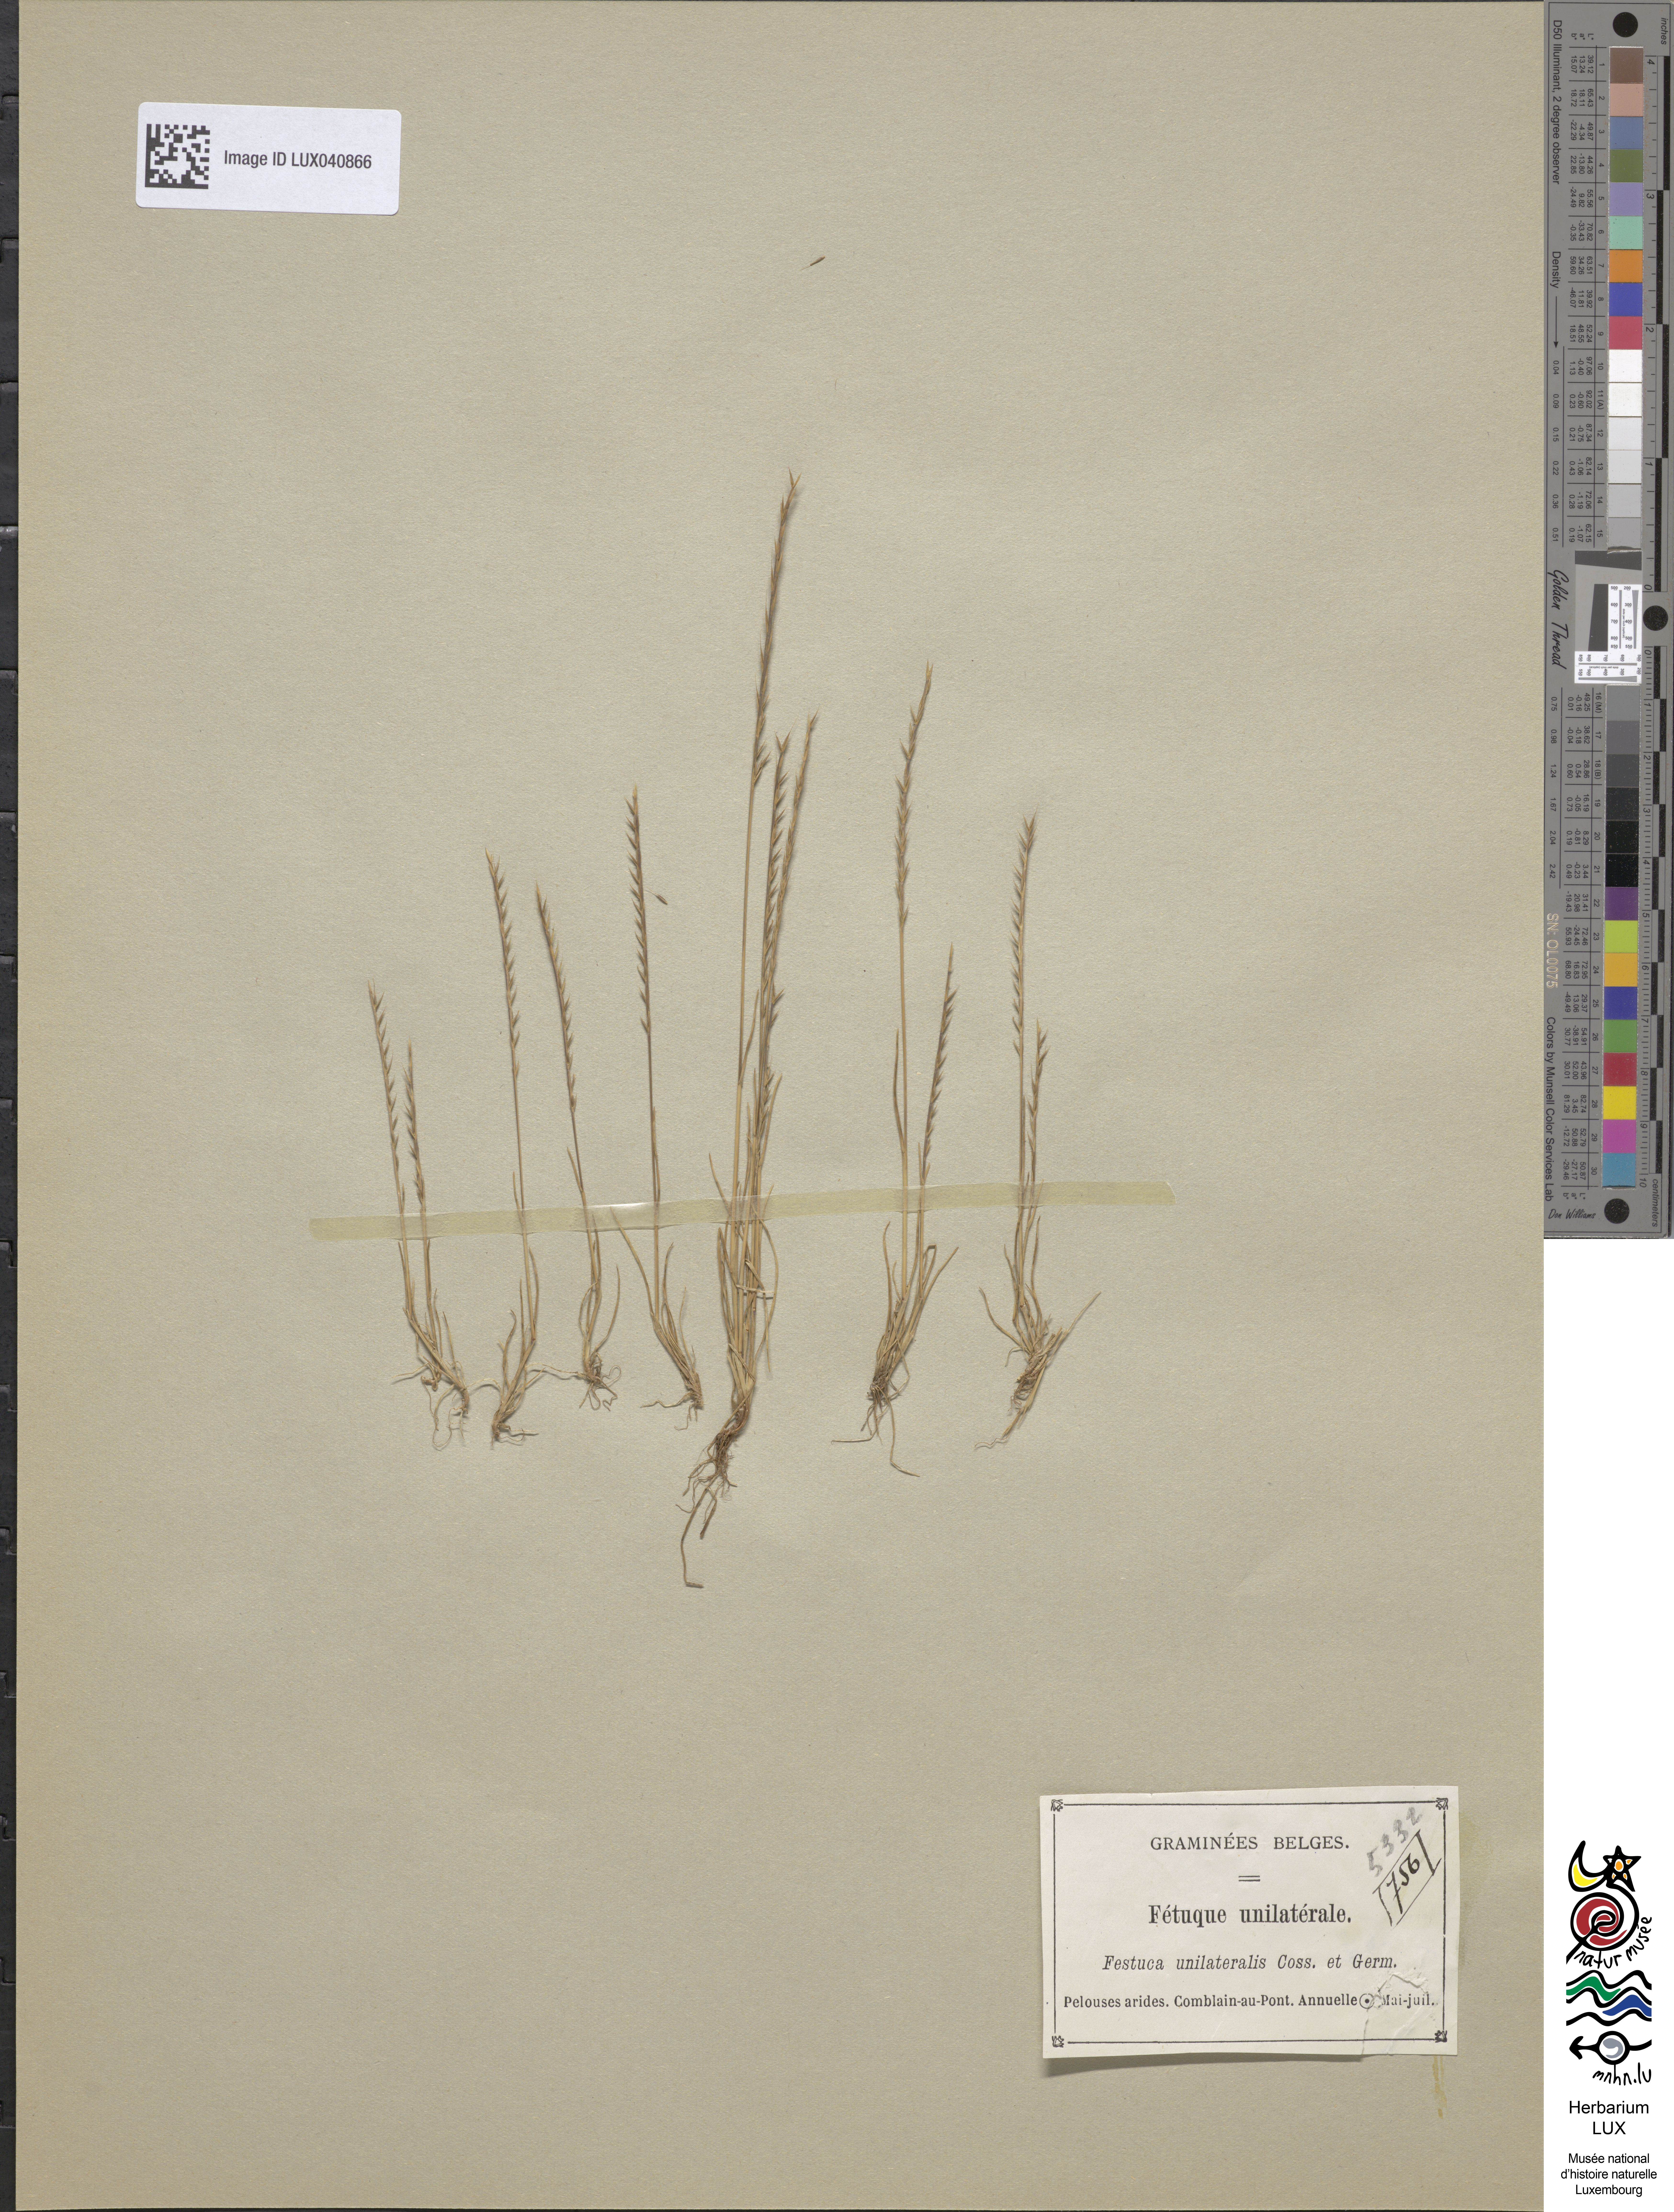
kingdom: Plantae
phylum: Tracheophyta
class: Liliopsida
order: Poales
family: Poaceae
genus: Festuca
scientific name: Festuca maritima
